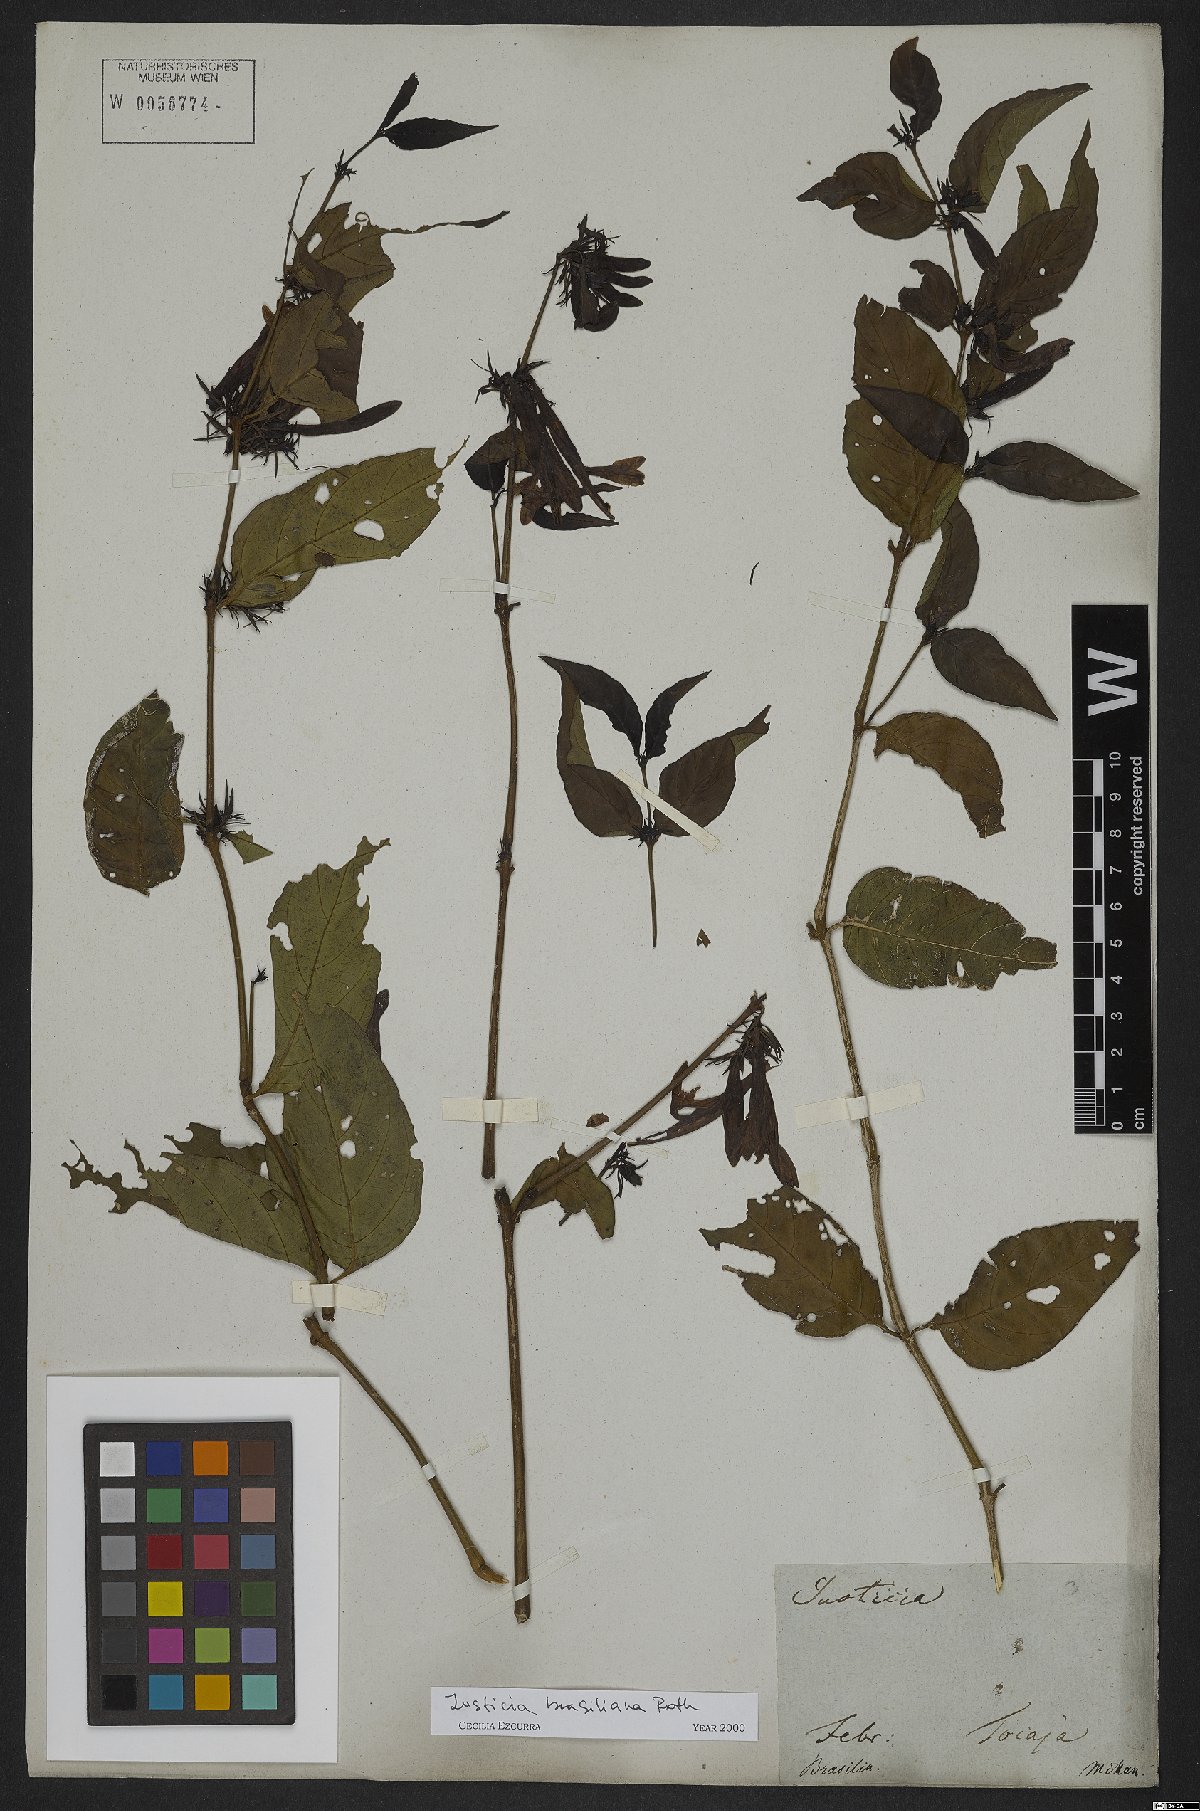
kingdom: Plantae
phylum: Tracheophyta
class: Magnoliopsida
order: Lamiales
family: Acanthaceae
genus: Justicia
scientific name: Justicia brasiliana
